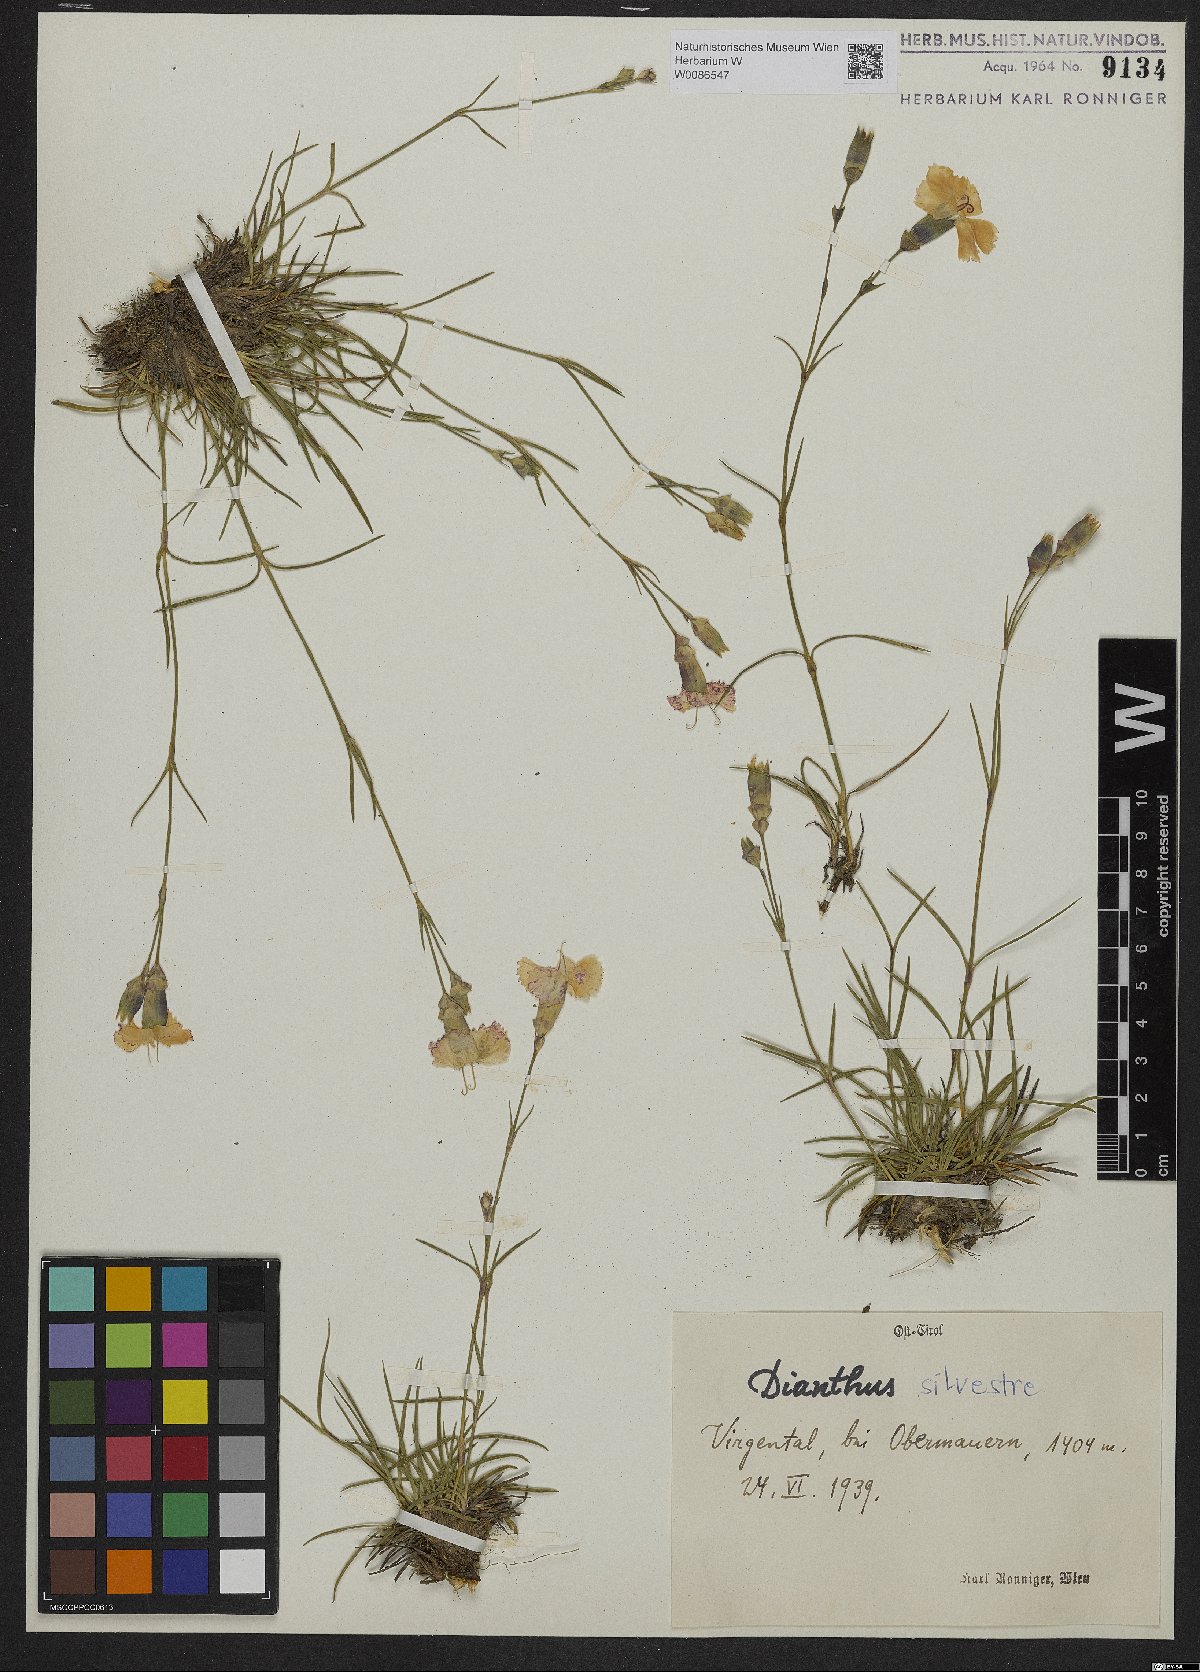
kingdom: Plantae
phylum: Tracheophyta
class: Magnoliopsida
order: Caryophyllales
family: Caryophyllaceae
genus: Dianthus
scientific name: Dianthus sylvestris
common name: Wood pink
